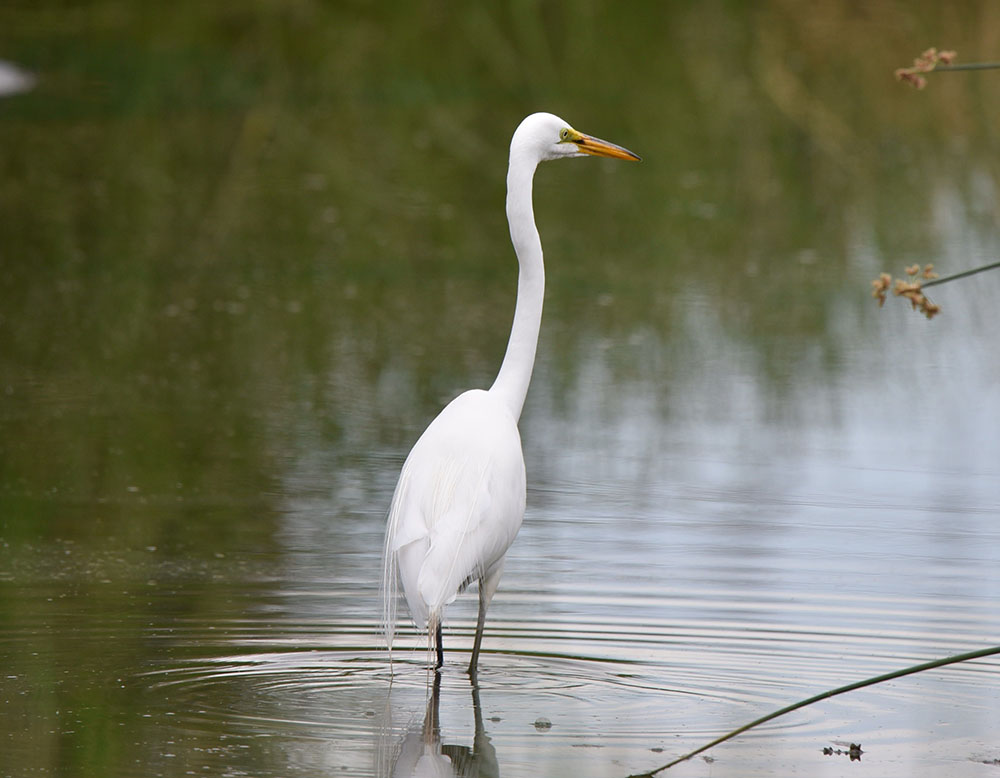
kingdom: Animalia
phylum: Chordata
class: Aves
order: Pelecaniformes
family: Ardeidae
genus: Ardea
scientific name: Ardea alba
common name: Great egret
